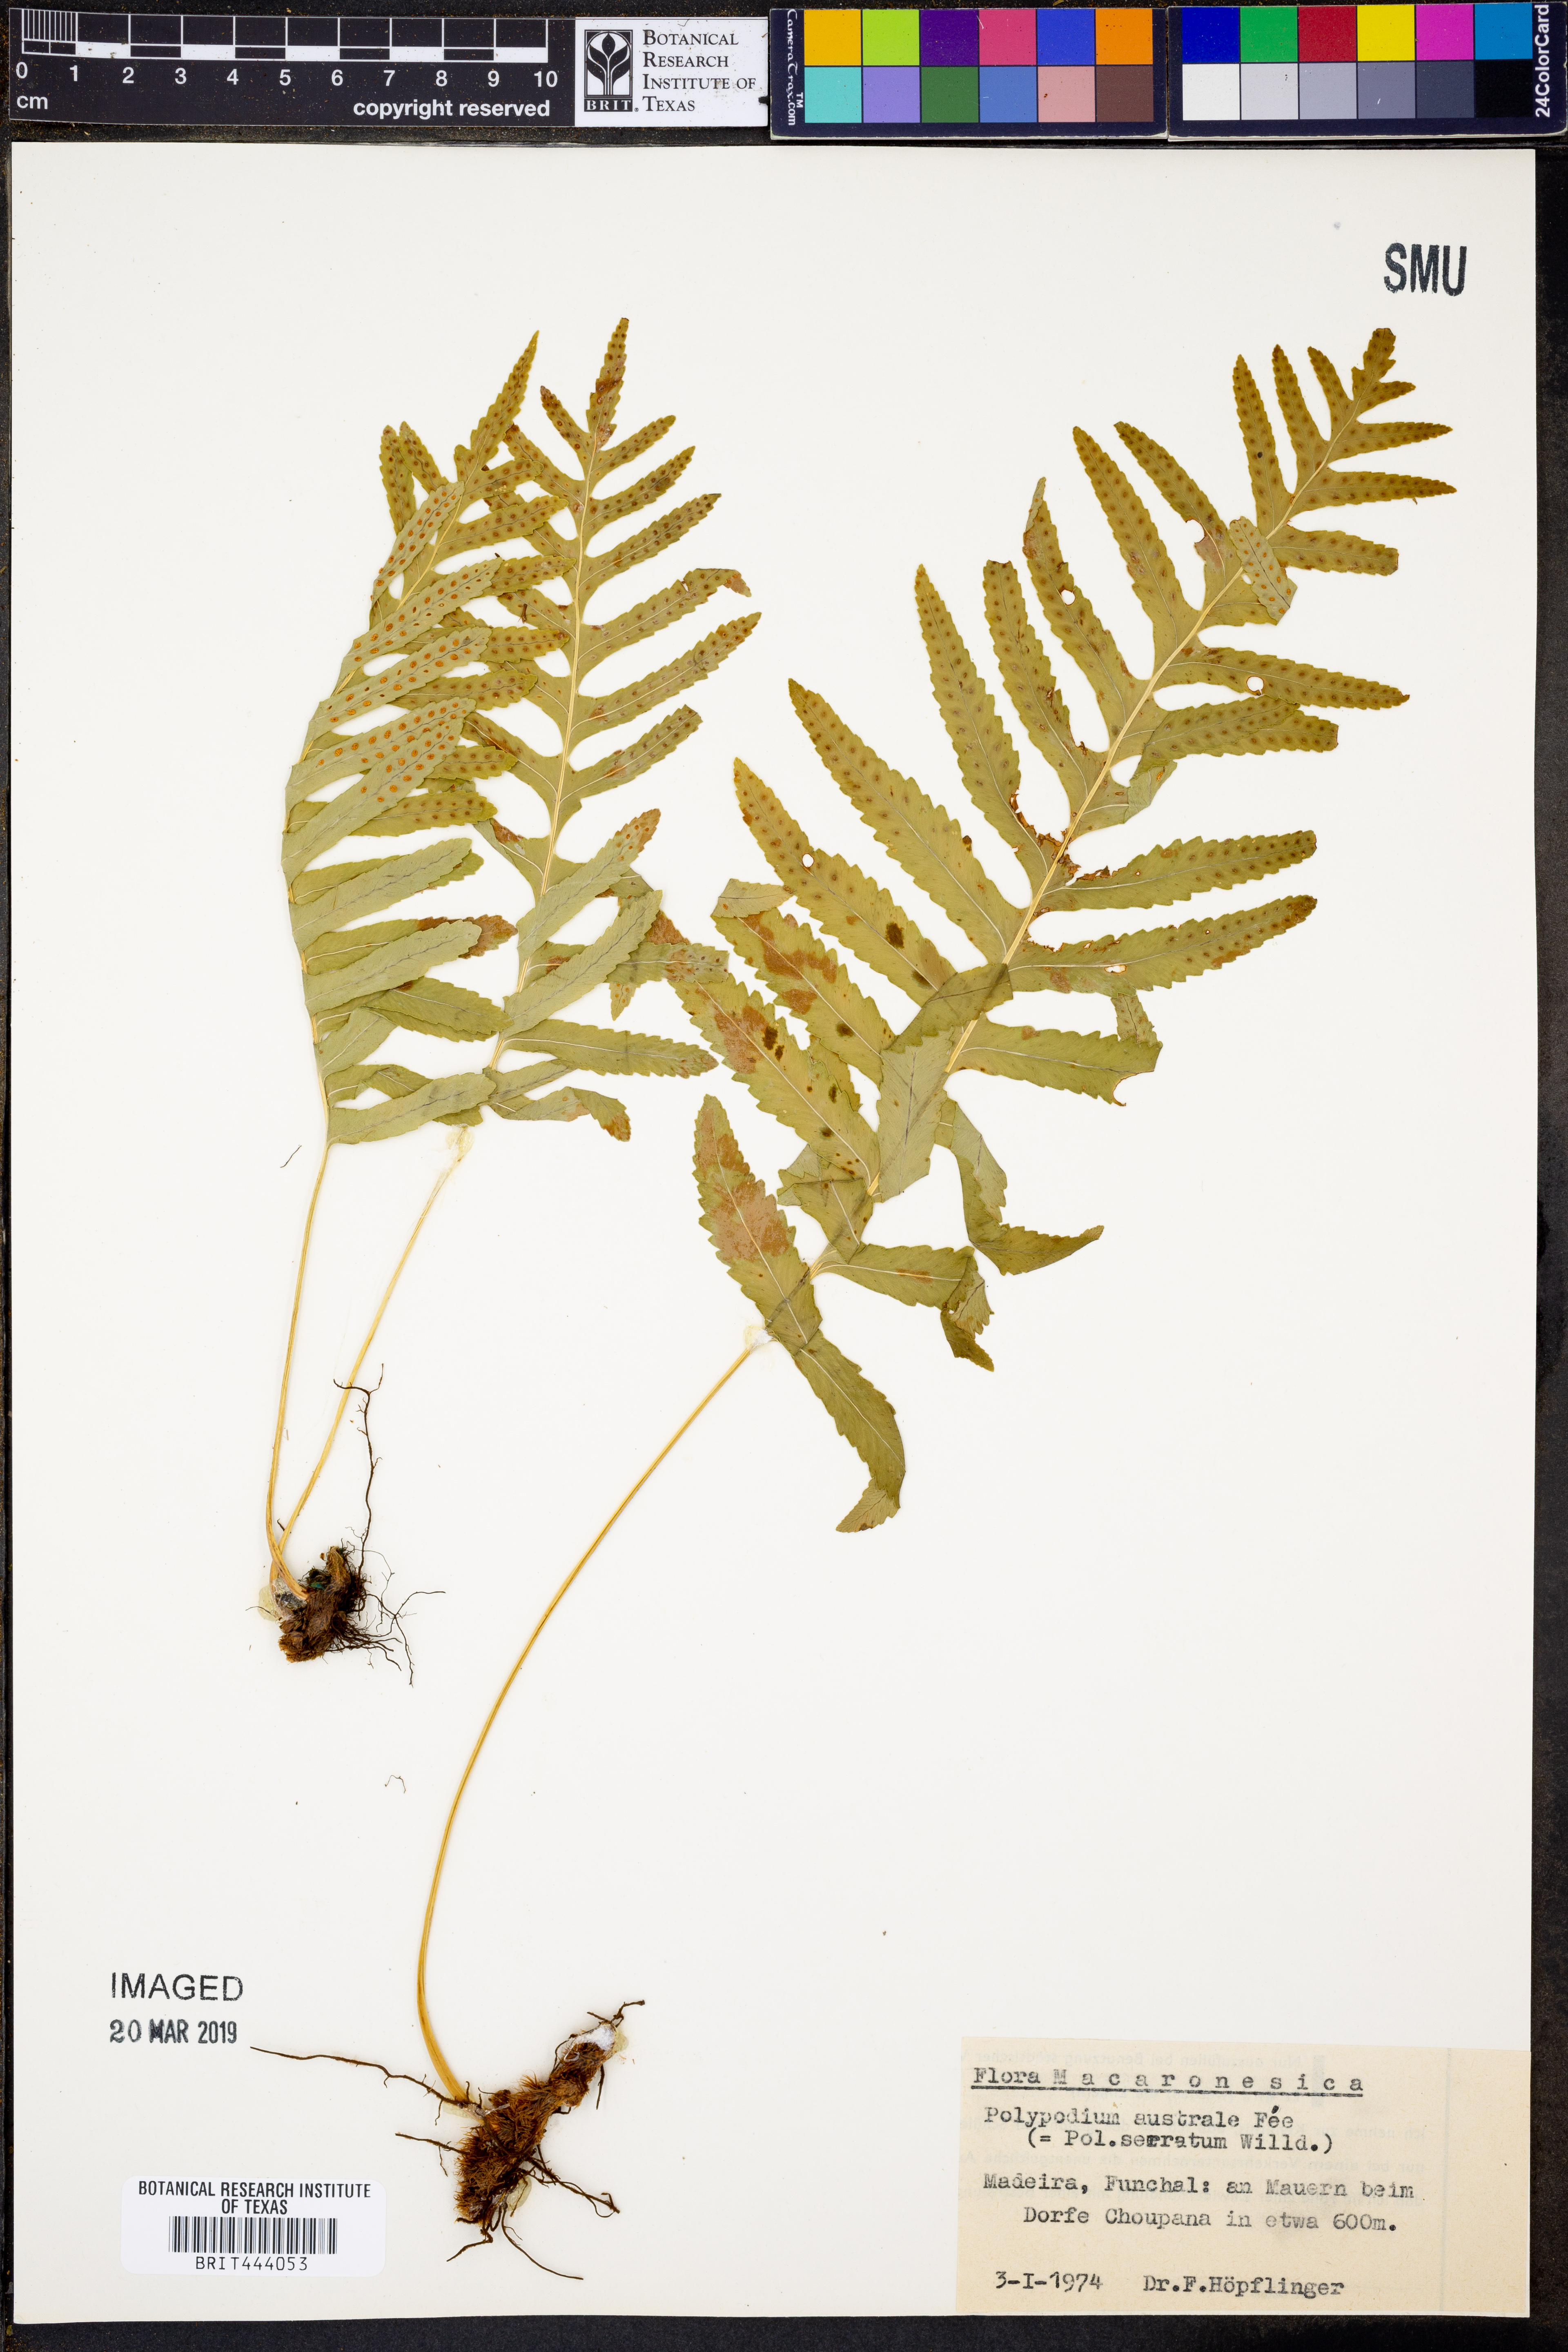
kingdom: Plantae
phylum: Tracheophyta
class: Polypodiopsida
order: Polypodiales
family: Polypodiaceae
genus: Polypodium
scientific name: Polypodium cambricum
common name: Southern polypody
